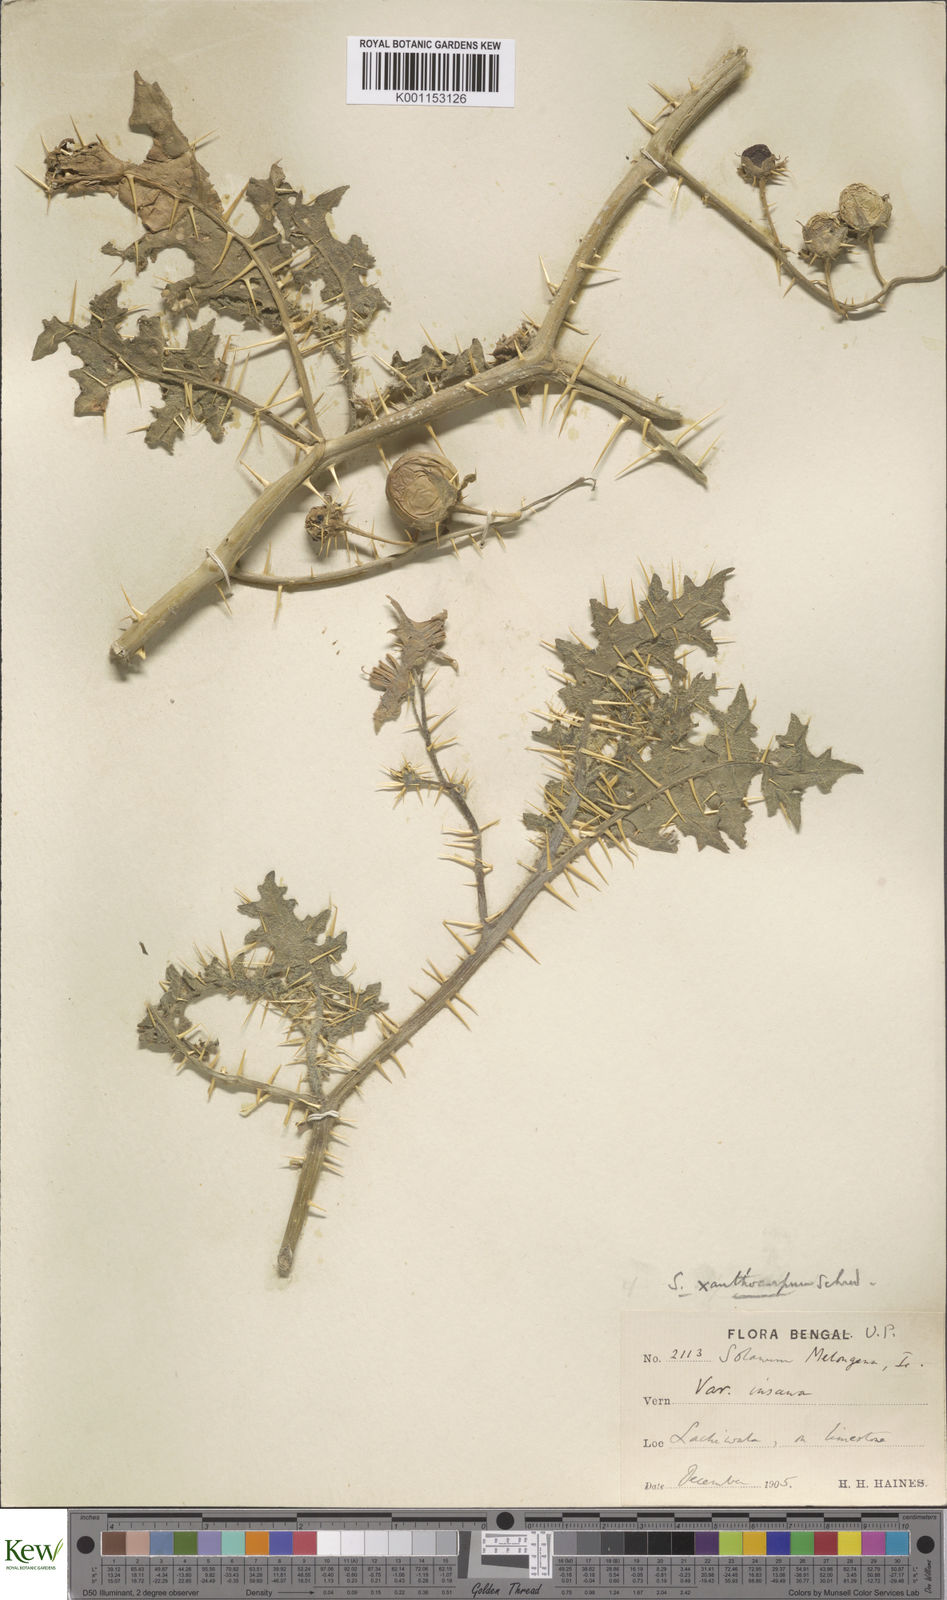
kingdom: Plantae
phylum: Tracheophyta
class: Magnoliopsida
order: Solanales
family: Solanaceae
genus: Solanum
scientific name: Solanum virginianum
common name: Surattense nightshade
